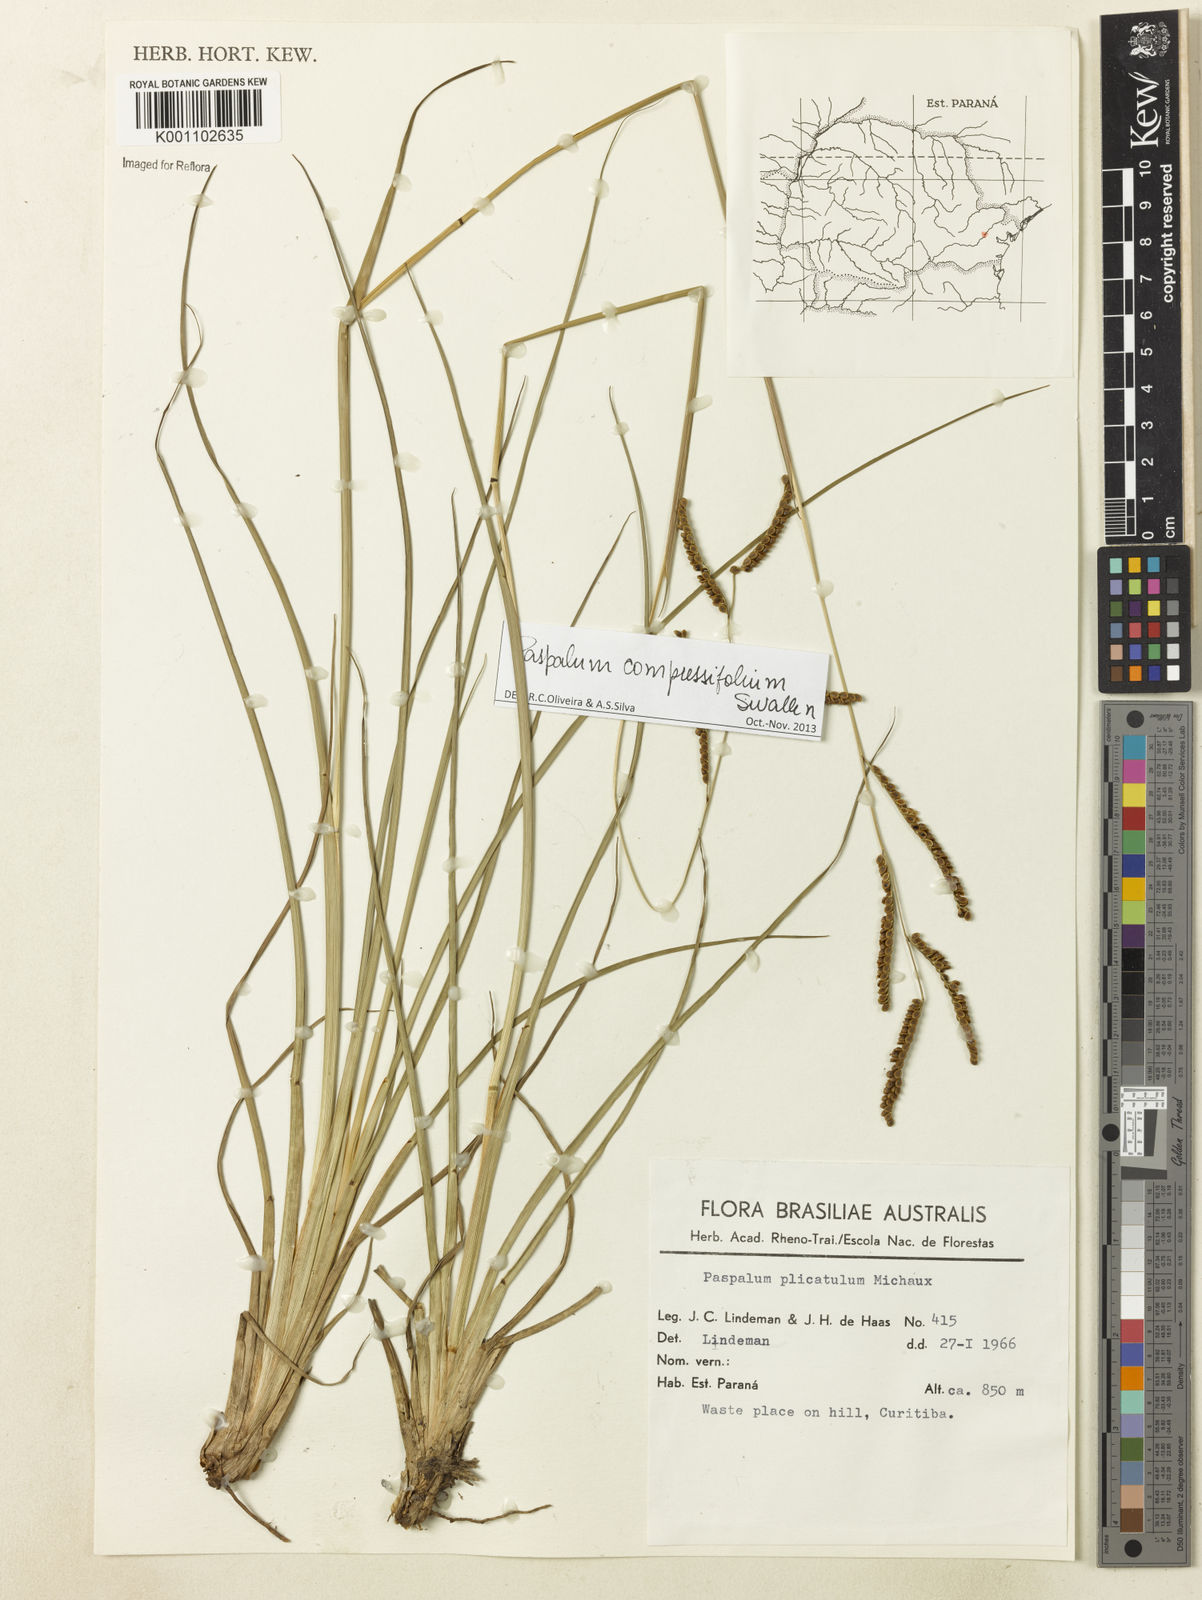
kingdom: Plantae
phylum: Tracheophyta
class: Liliopsida
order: Poales
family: Poaceae
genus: Paspalum
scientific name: Paspalum
